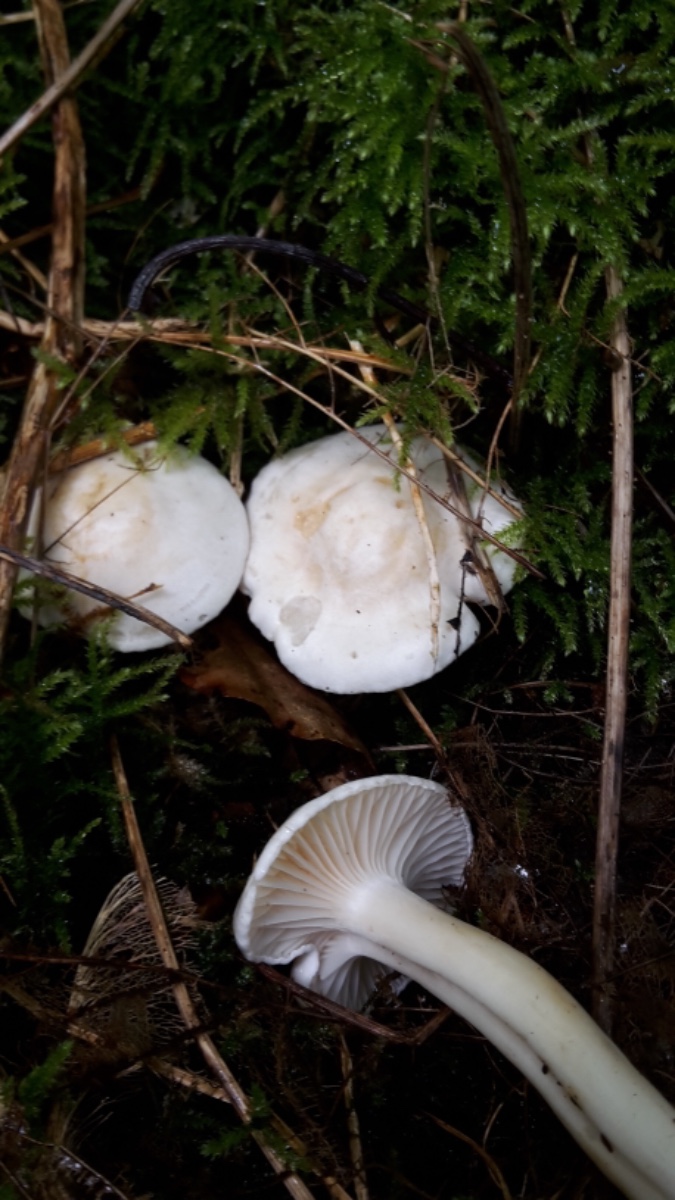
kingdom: Fungi
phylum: Basidiomycota
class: Agaricomycetes
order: Agaricales
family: Hygrophoraceae
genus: Cuphophyllus
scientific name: Cuphophyllus pratensis
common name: bleg vokshat
